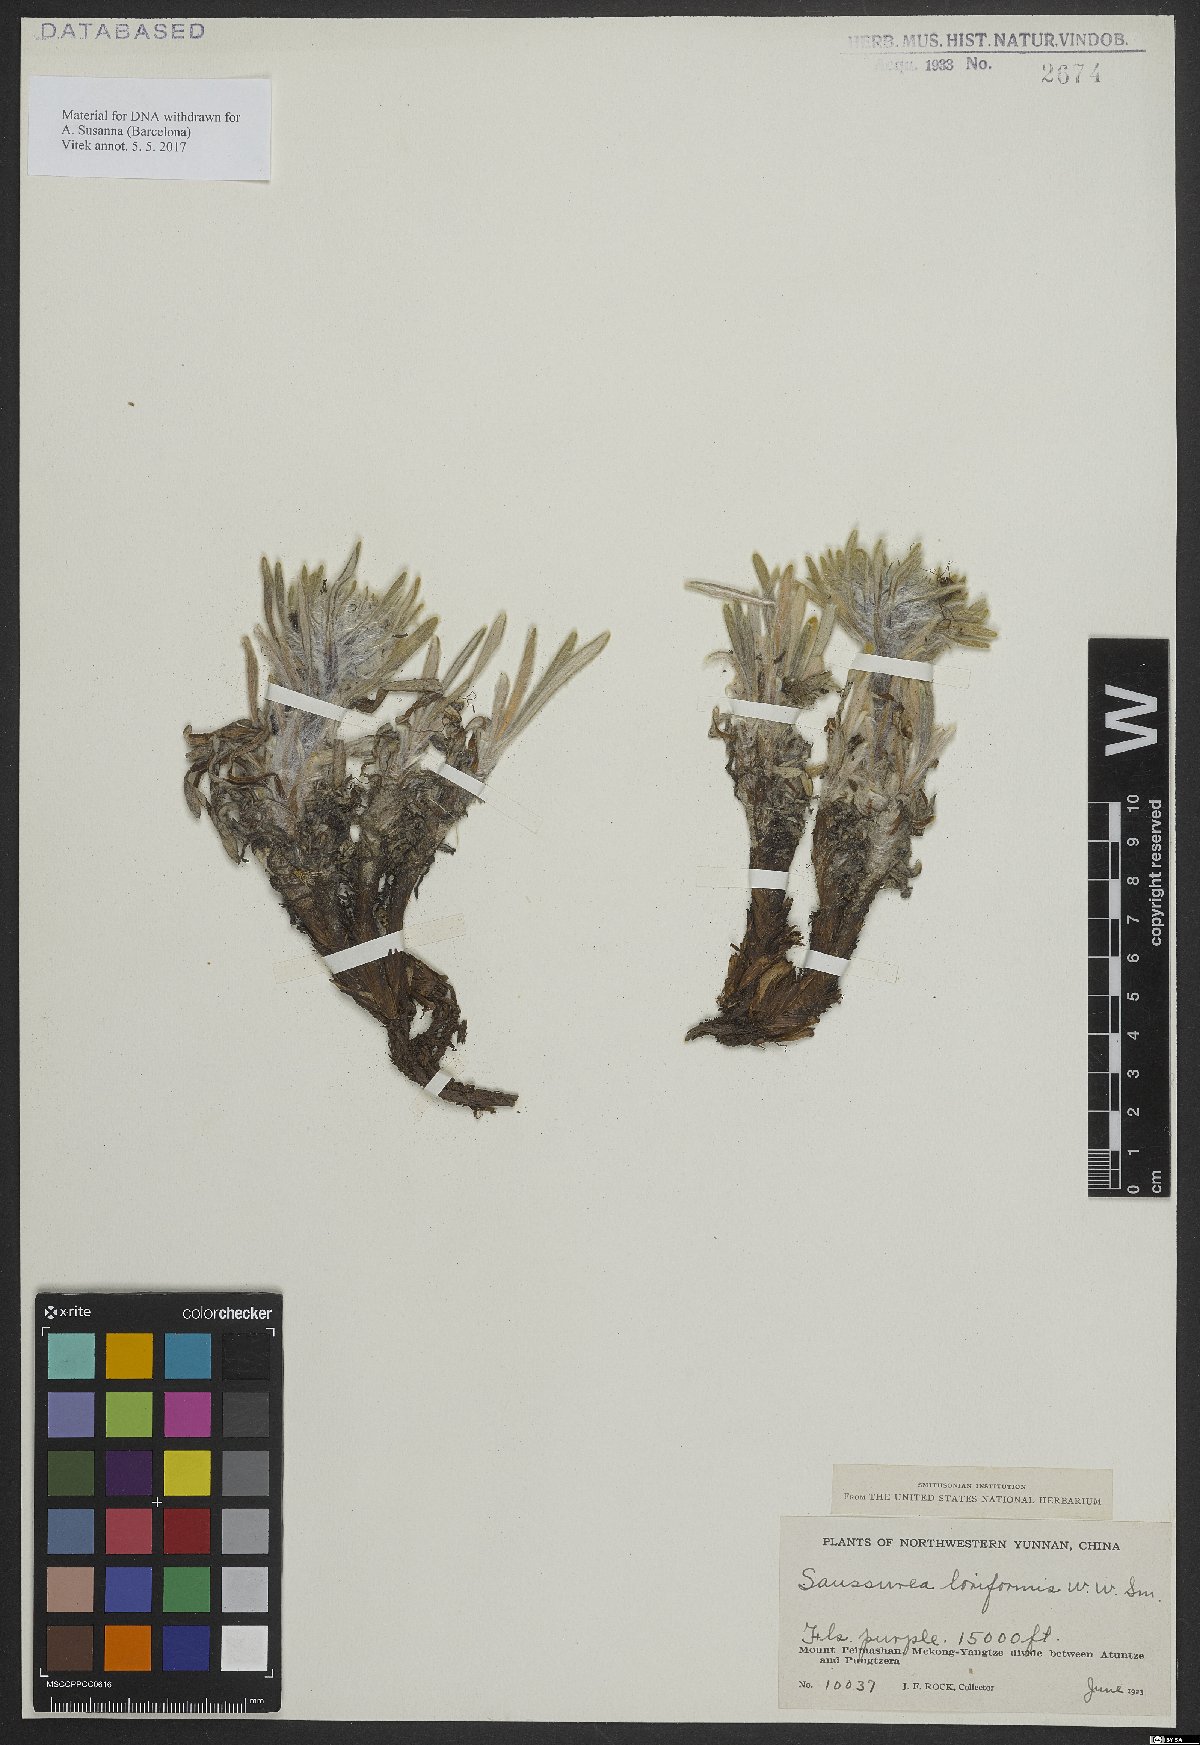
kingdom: Plantae
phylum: Tracheophyta
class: Magnoliopsida
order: Asterales
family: Asteraceae
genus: Saussurea
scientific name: Saussurea loriformis
